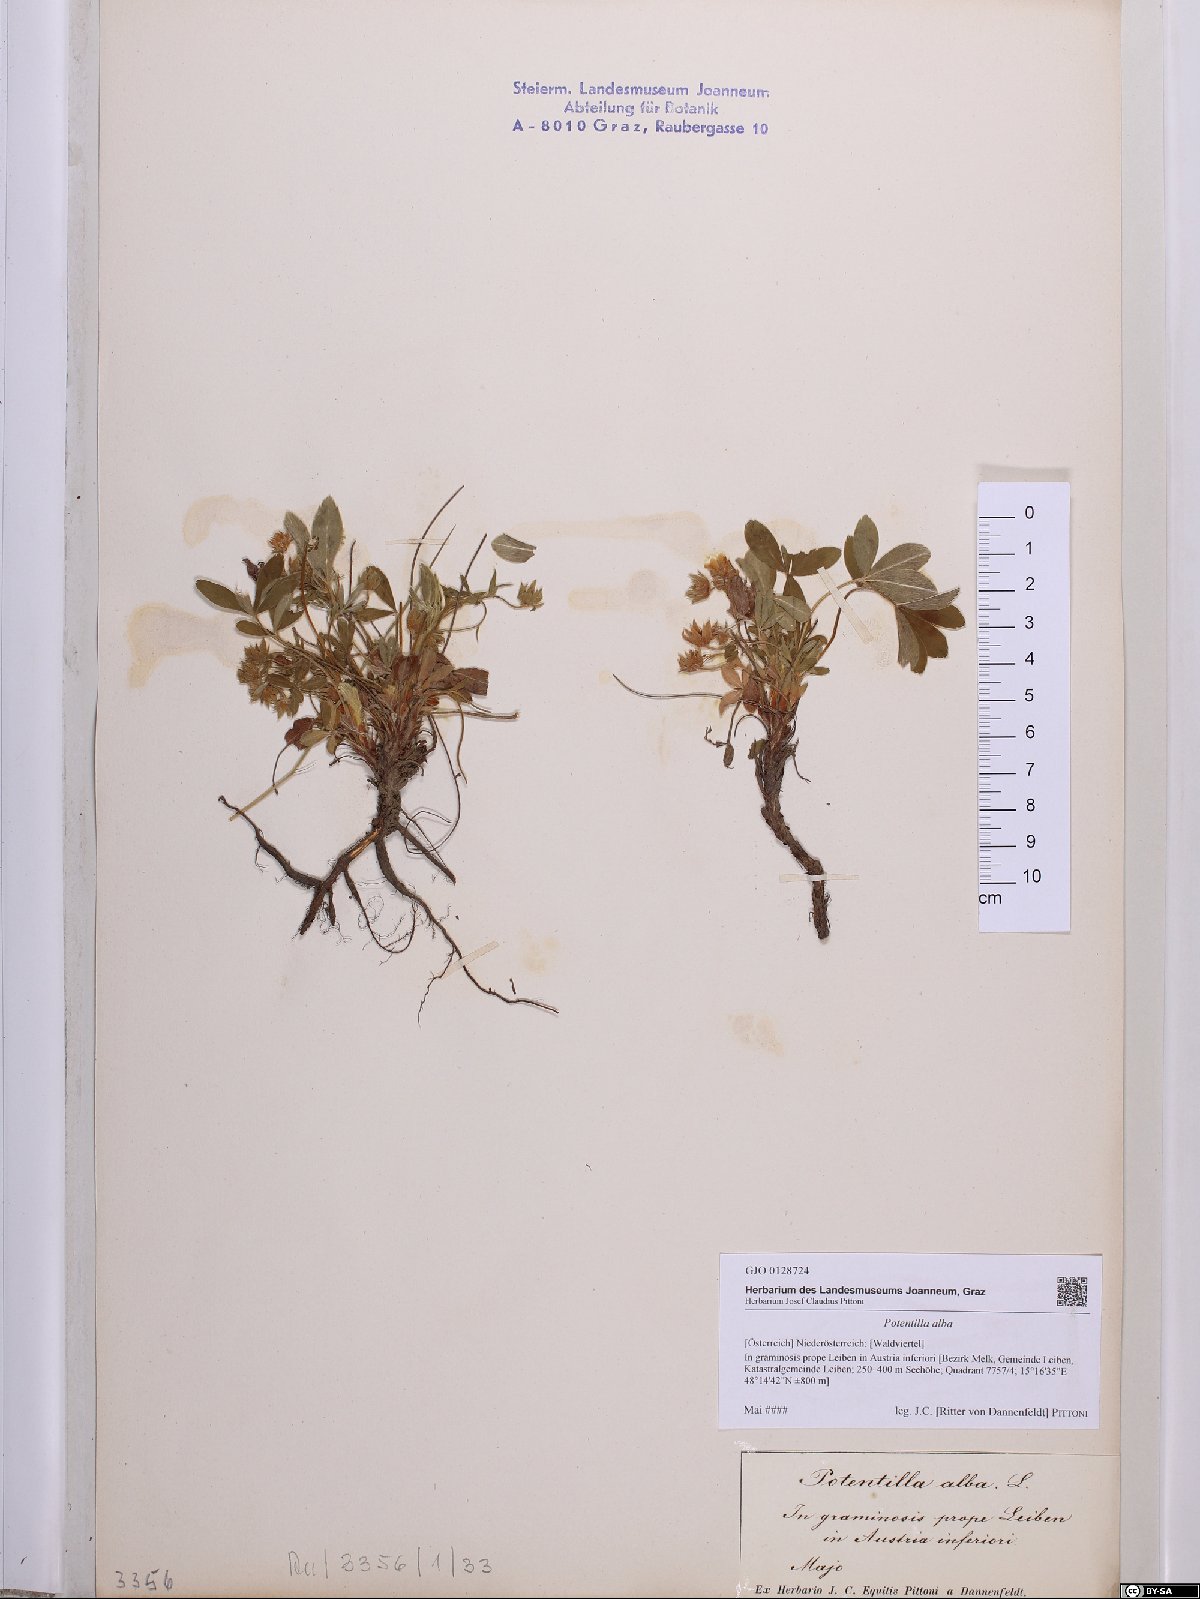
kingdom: Plantae
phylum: Tracheophyta
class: Magnoliopsida
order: Rosales
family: Rosaceae
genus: Potentilla
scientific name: Potentilla alba
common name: White cinquefoil
